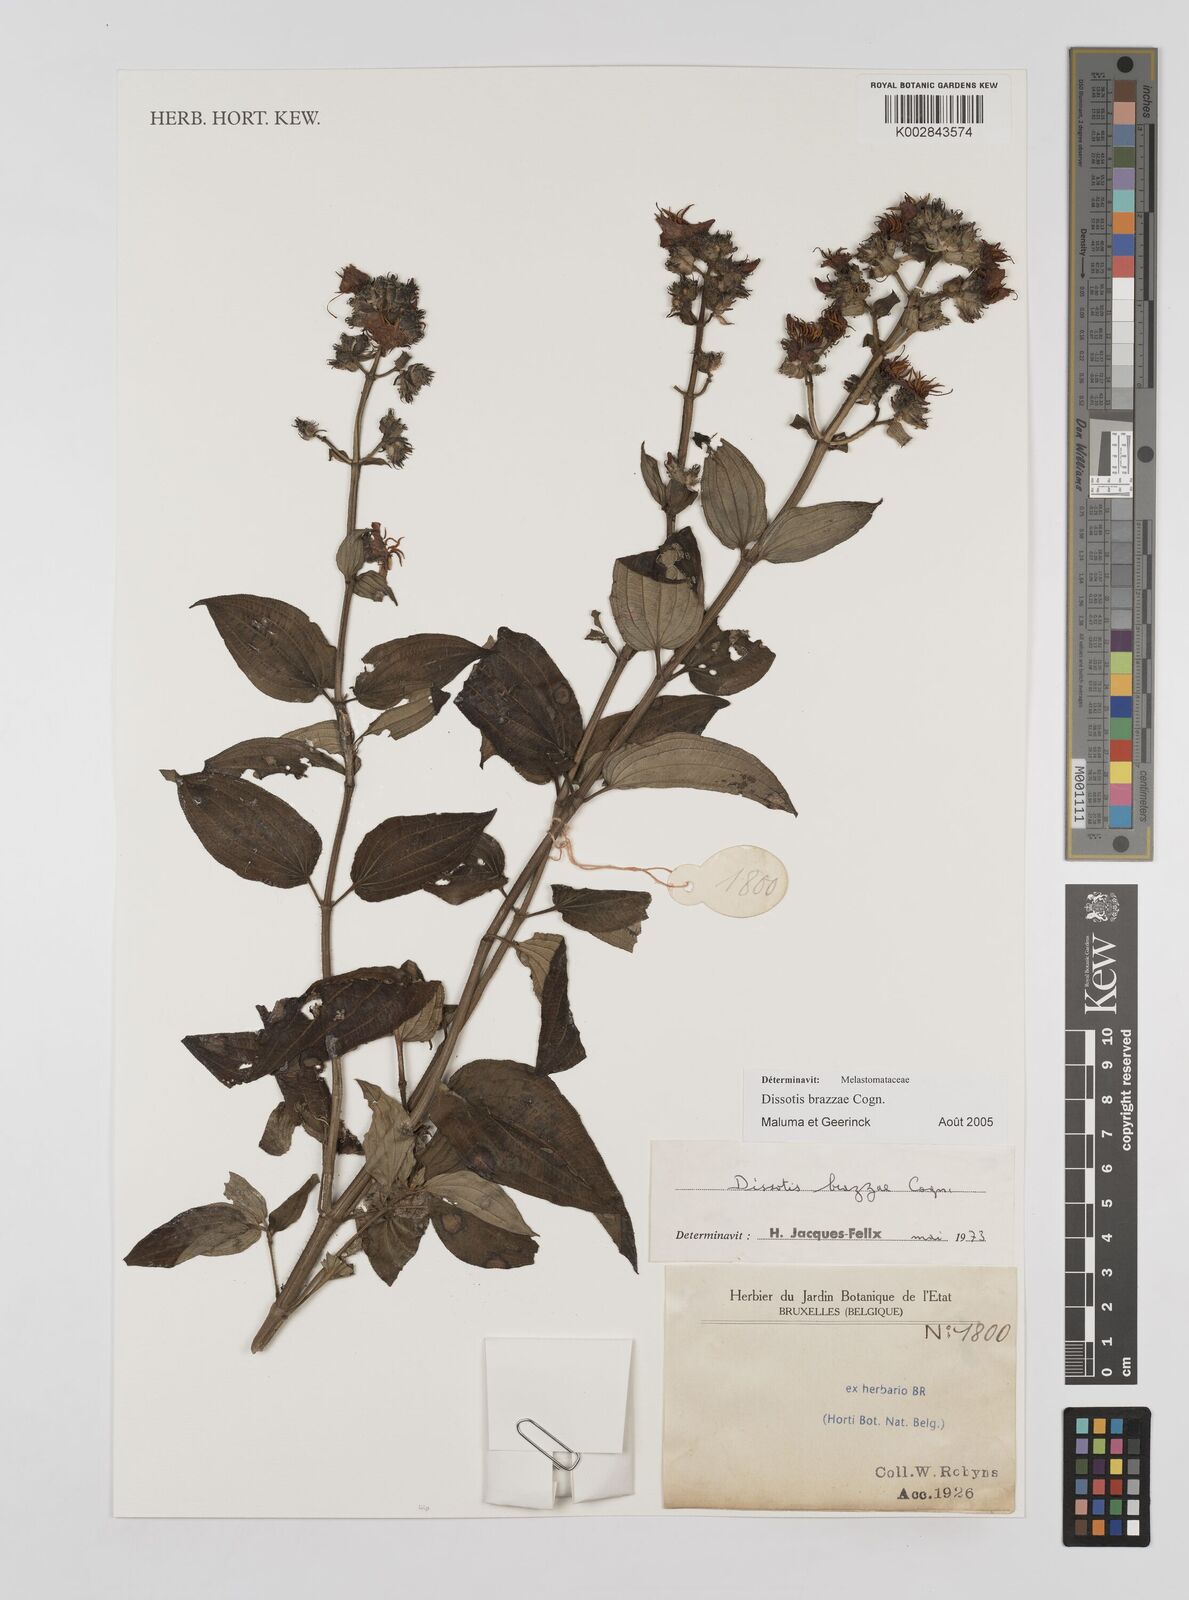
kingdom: Plantae
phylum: Tracheophyta
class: Magnoliopsida
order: Myrtales
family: Melastomataceae
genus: Dupineta
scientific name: Dupineta brazzae
